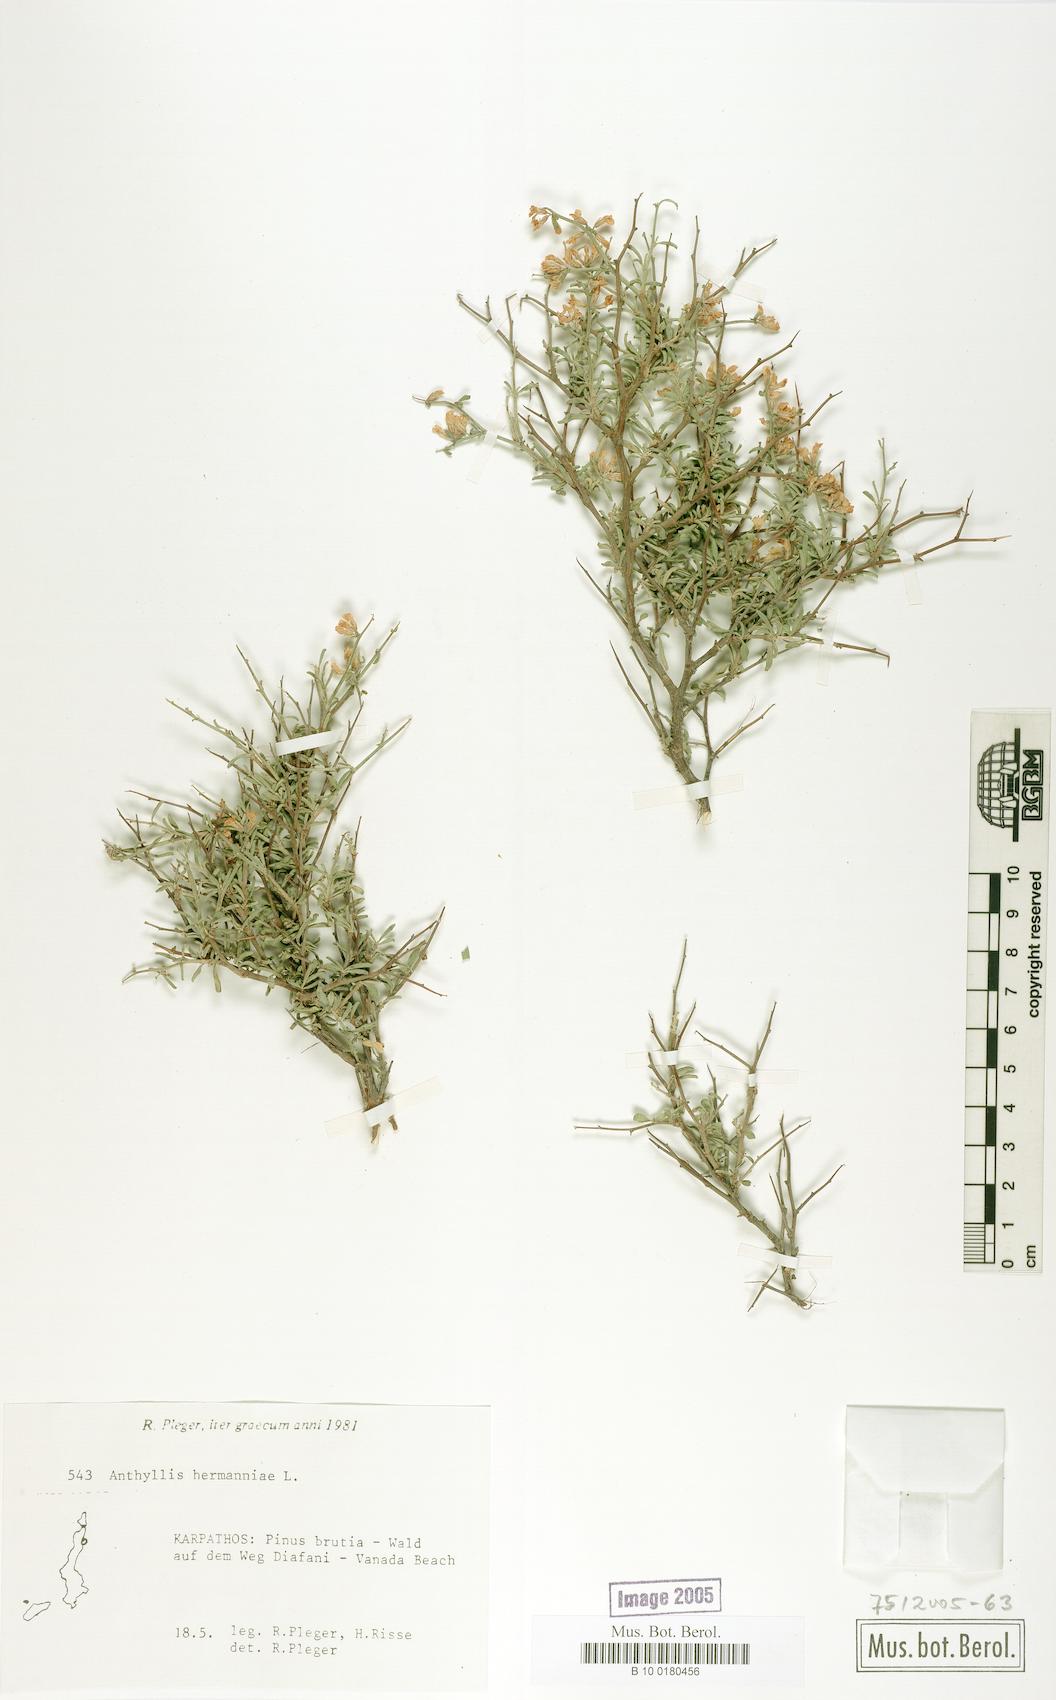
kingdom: Plantae
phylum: Tracheophyta
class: Magnoliopsida
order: Fabales
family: Fabaceae
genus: Anthyllis
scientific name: Anthyllis hermanniae
